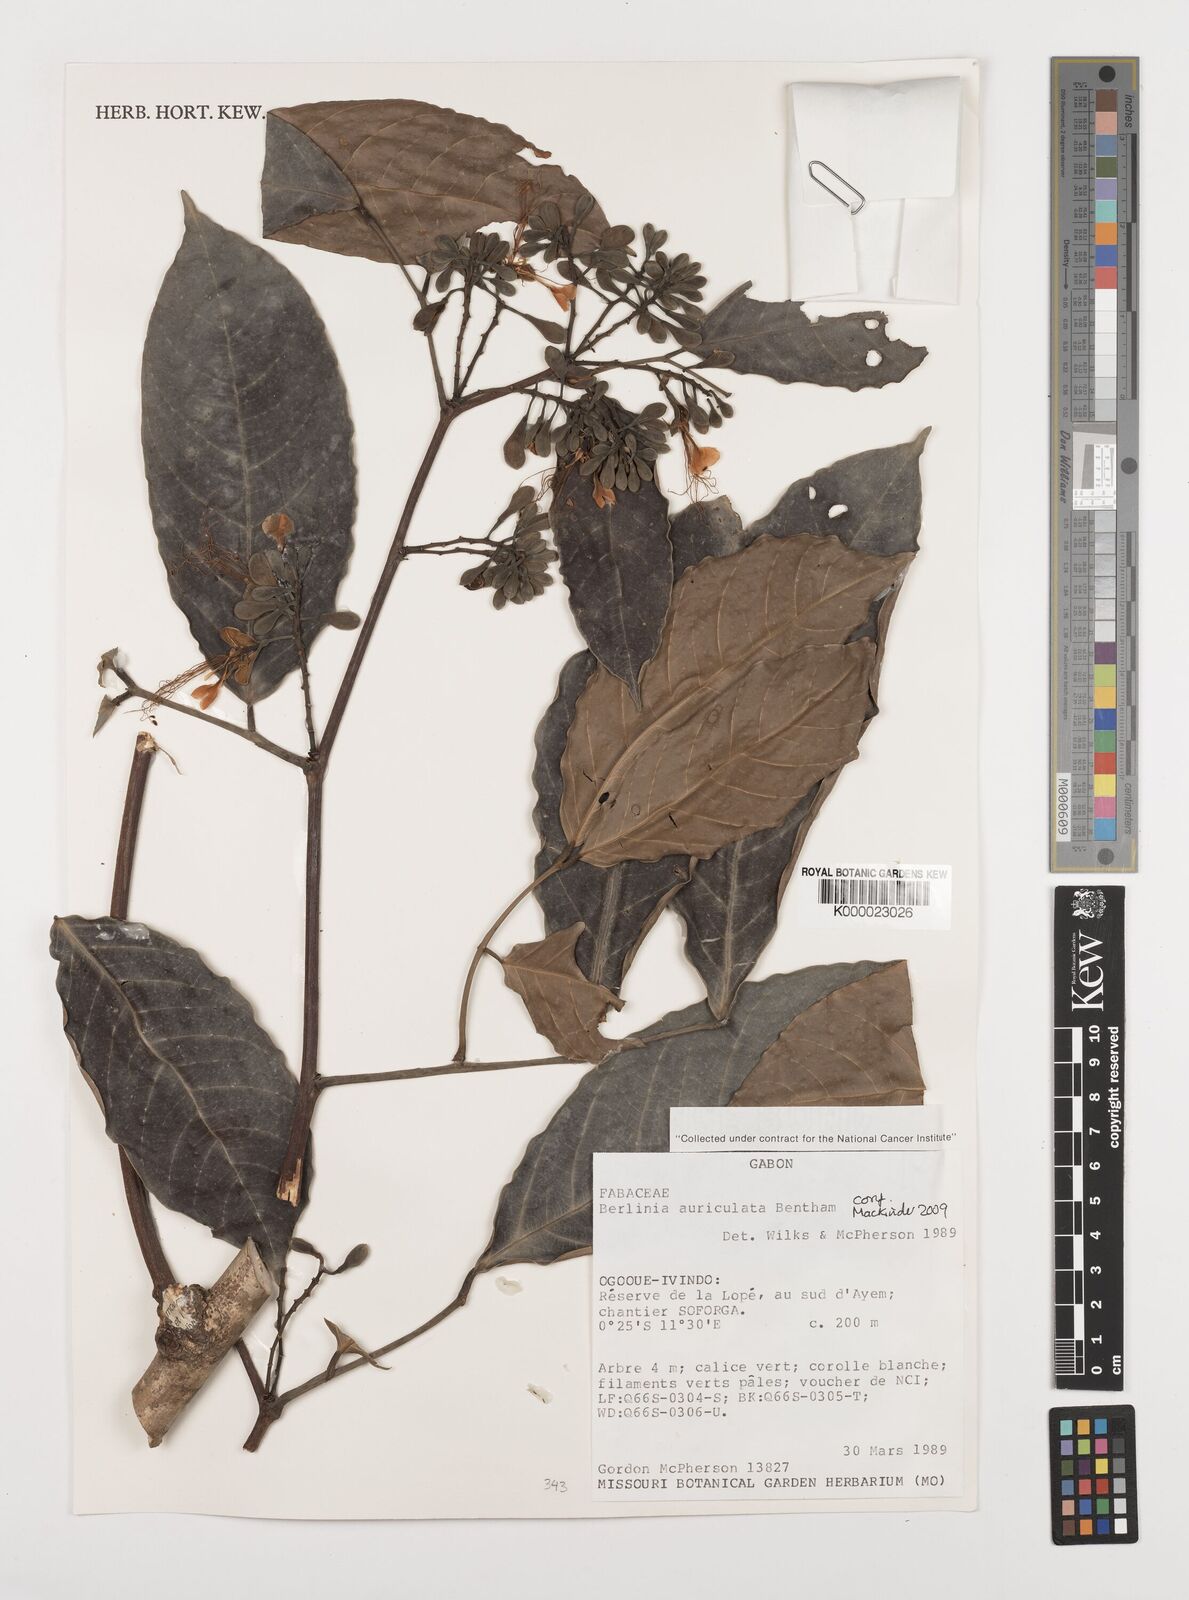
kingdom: Plantae
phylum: Tracheophyta
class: Magnoliopsida
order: Fabales
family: Fabaceae
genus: Berlinia
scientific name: Berlinia auriculata
